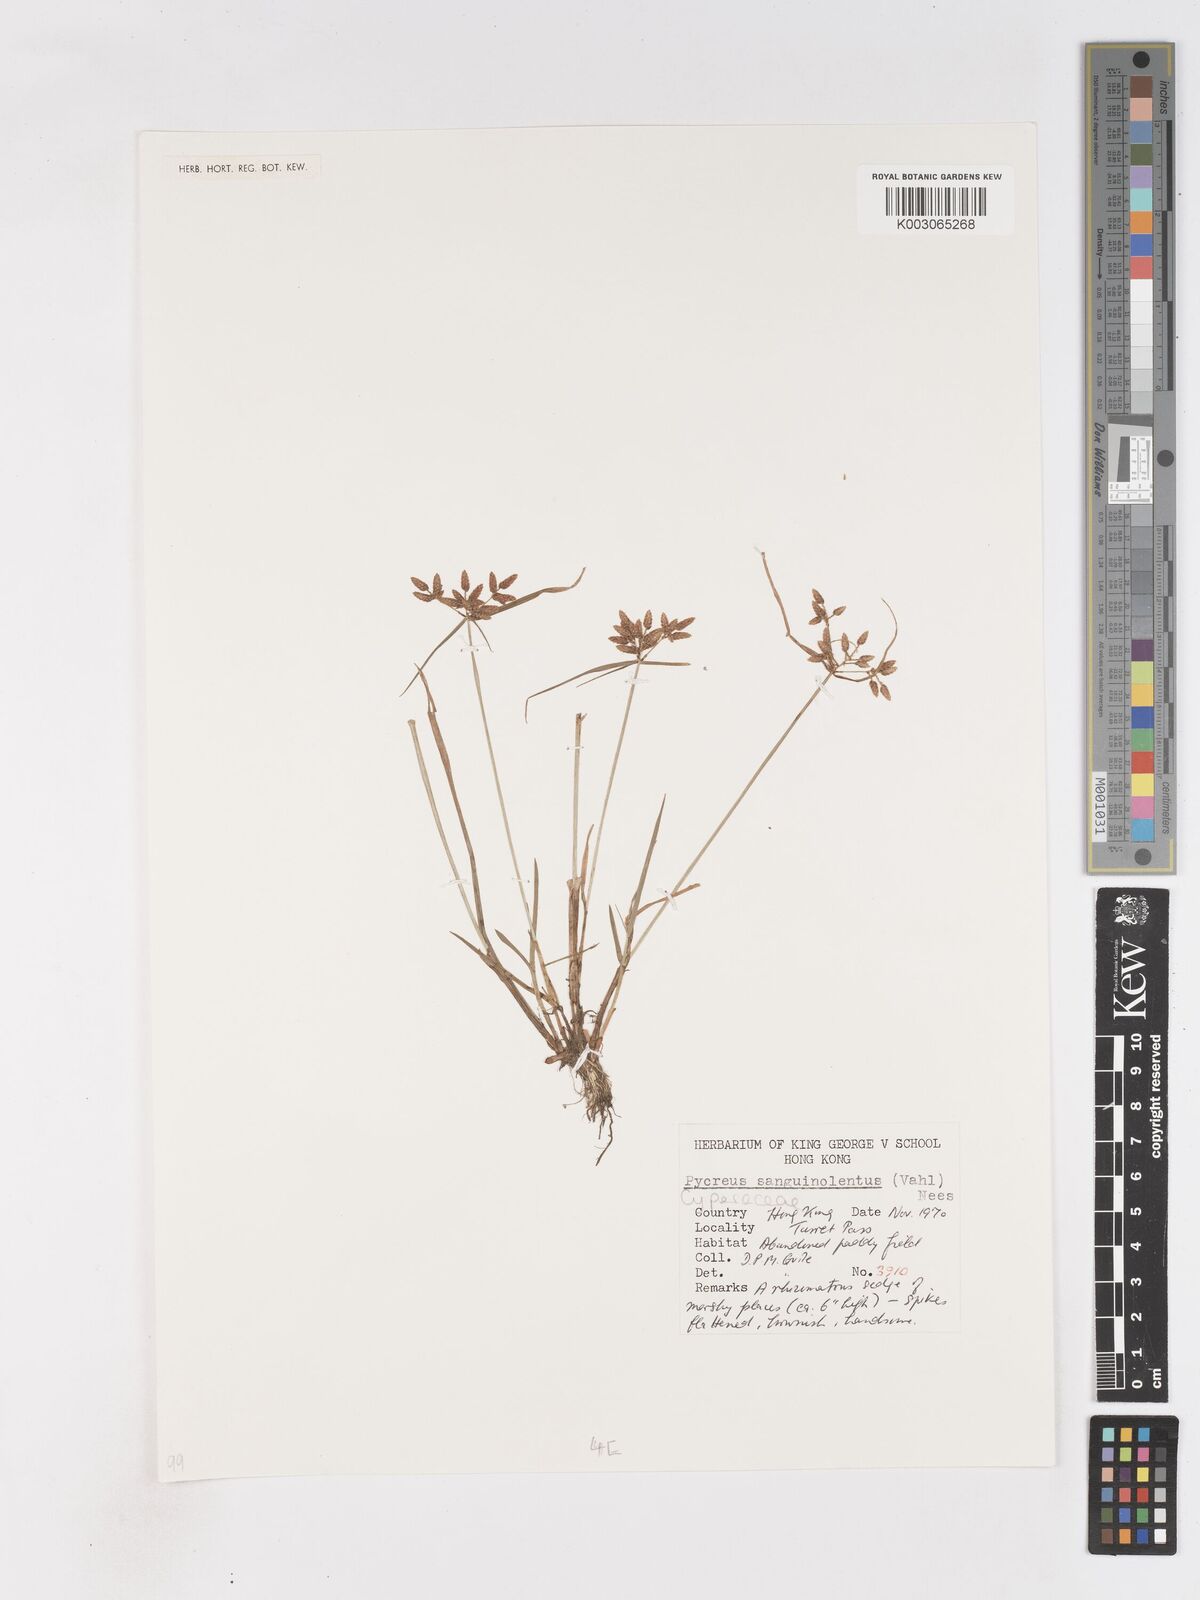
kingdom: Plantae
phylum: Tracheophyta
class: Liliopsida
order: Poales
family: Cyperaceae
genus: Cyperus
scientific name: Cyperus sanguinolentus
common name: Purpleglume flatsedge
